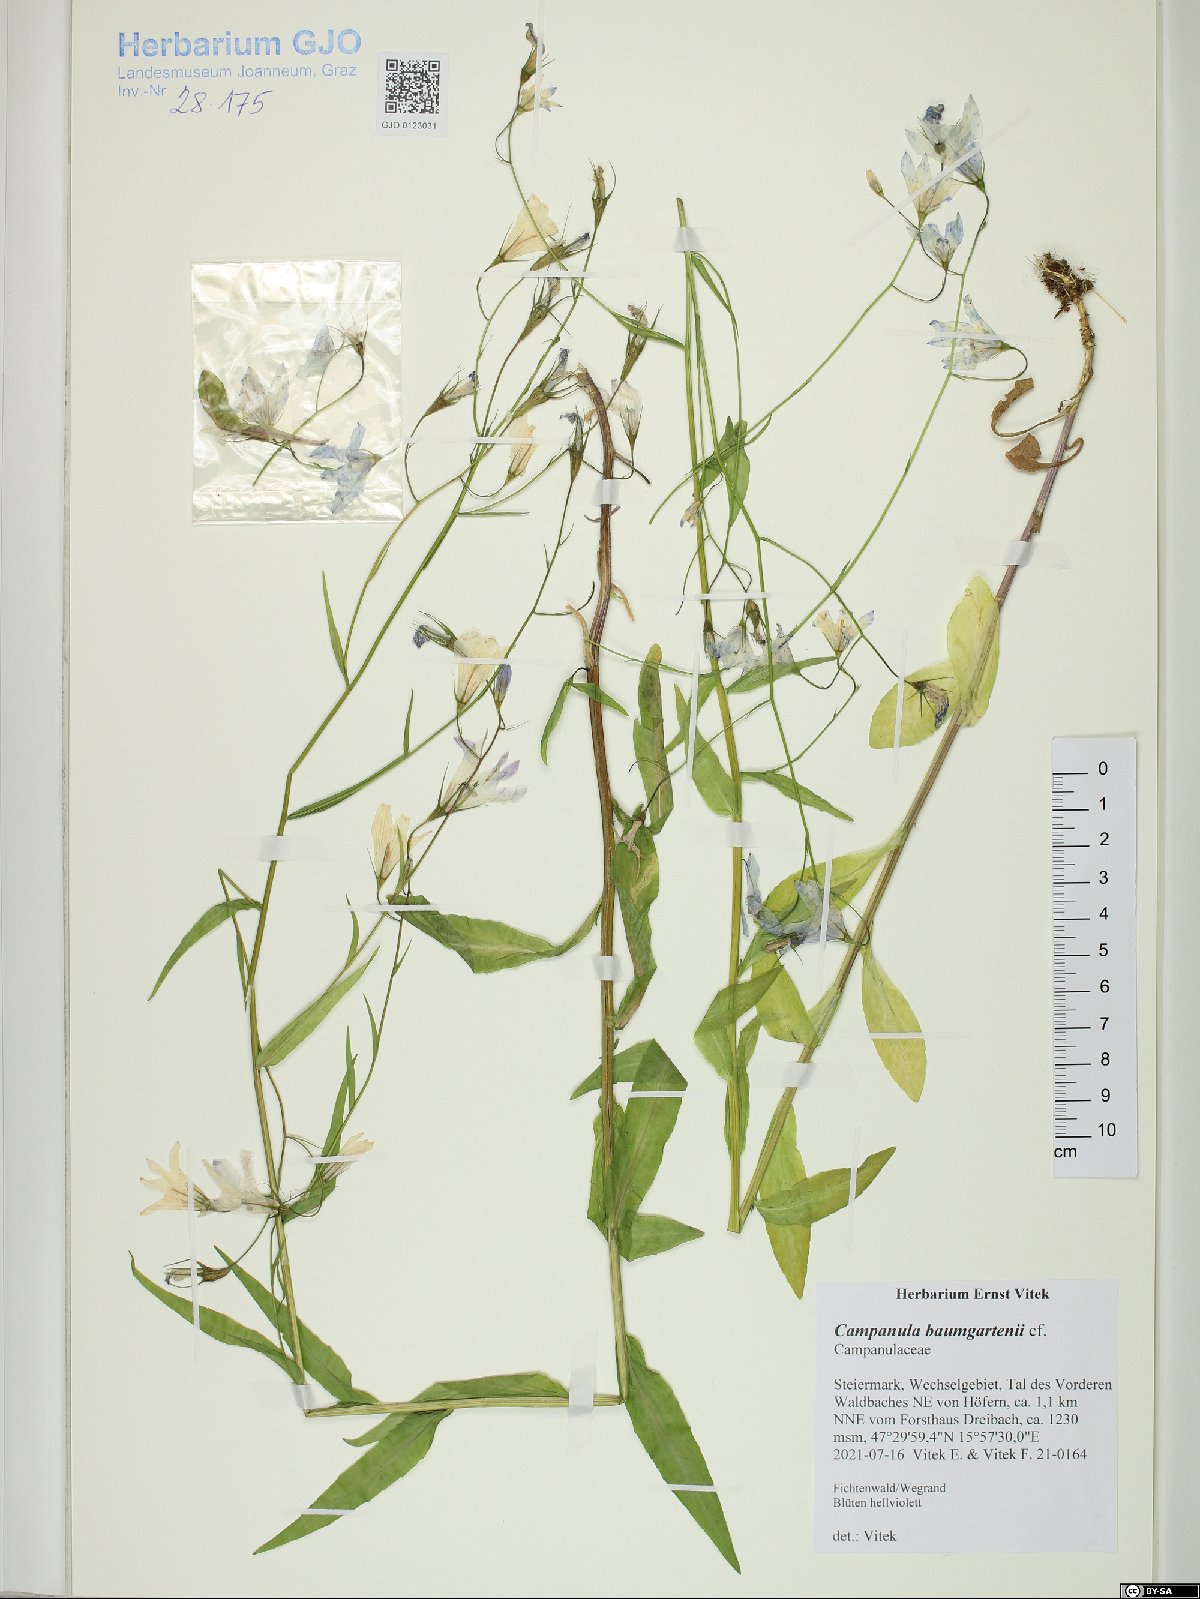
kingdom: Plantae
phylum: Tracheophyta
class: Magnoliopsida
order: Asterales
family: Campanulaceae
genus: Campanula
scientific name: Campanula baumgartenii
